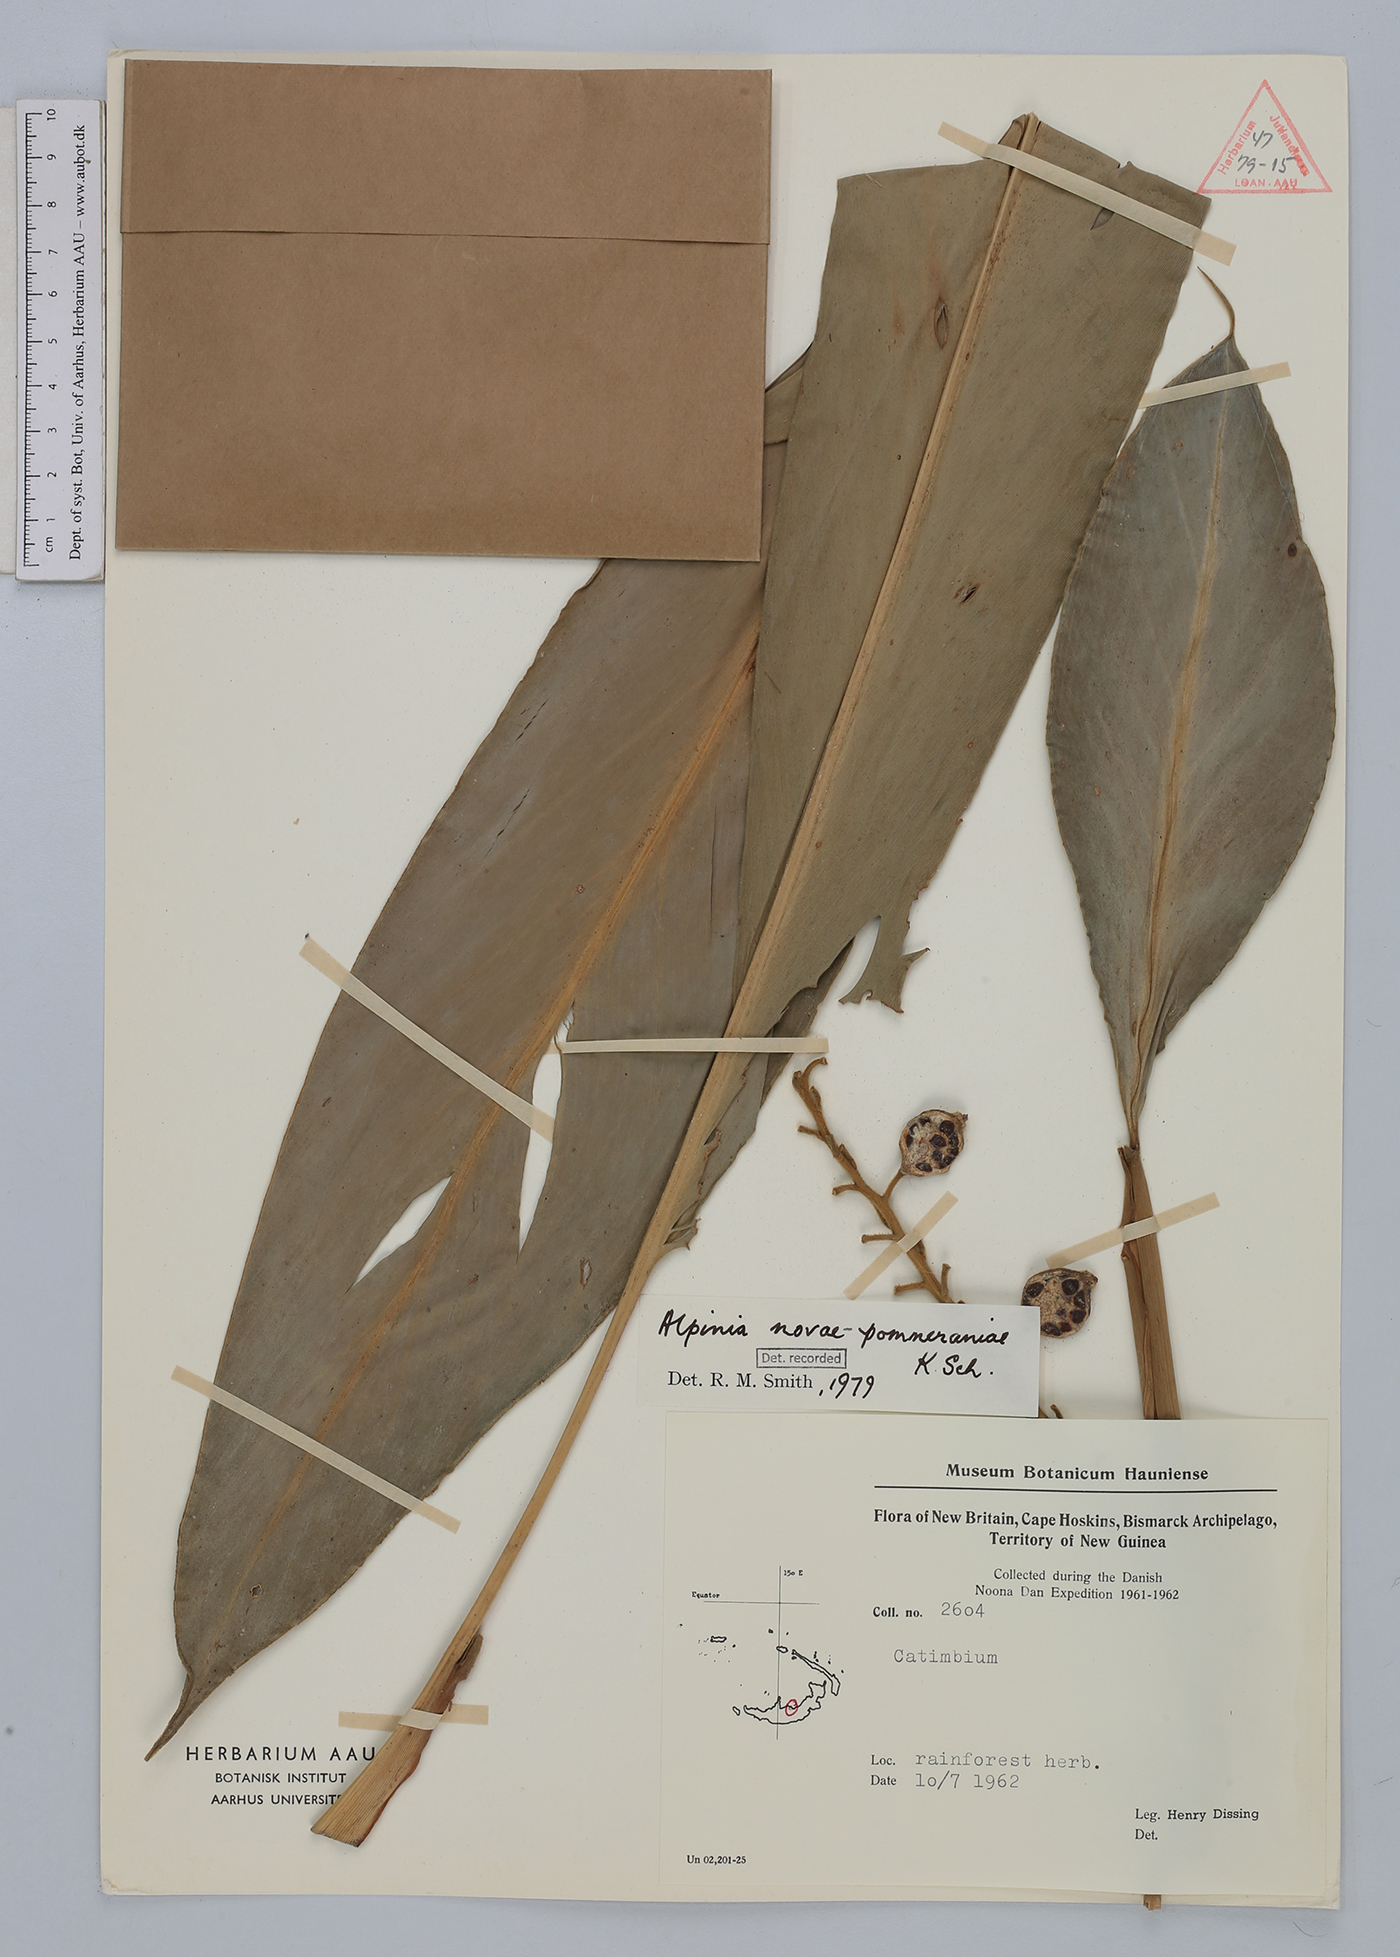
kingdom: Plantae
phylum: Tracheophyta
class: Liliopsida
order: Zingiberales
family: Zingiberaceae
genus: Alpinia
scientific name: Alpinia novae-pommeraniae
